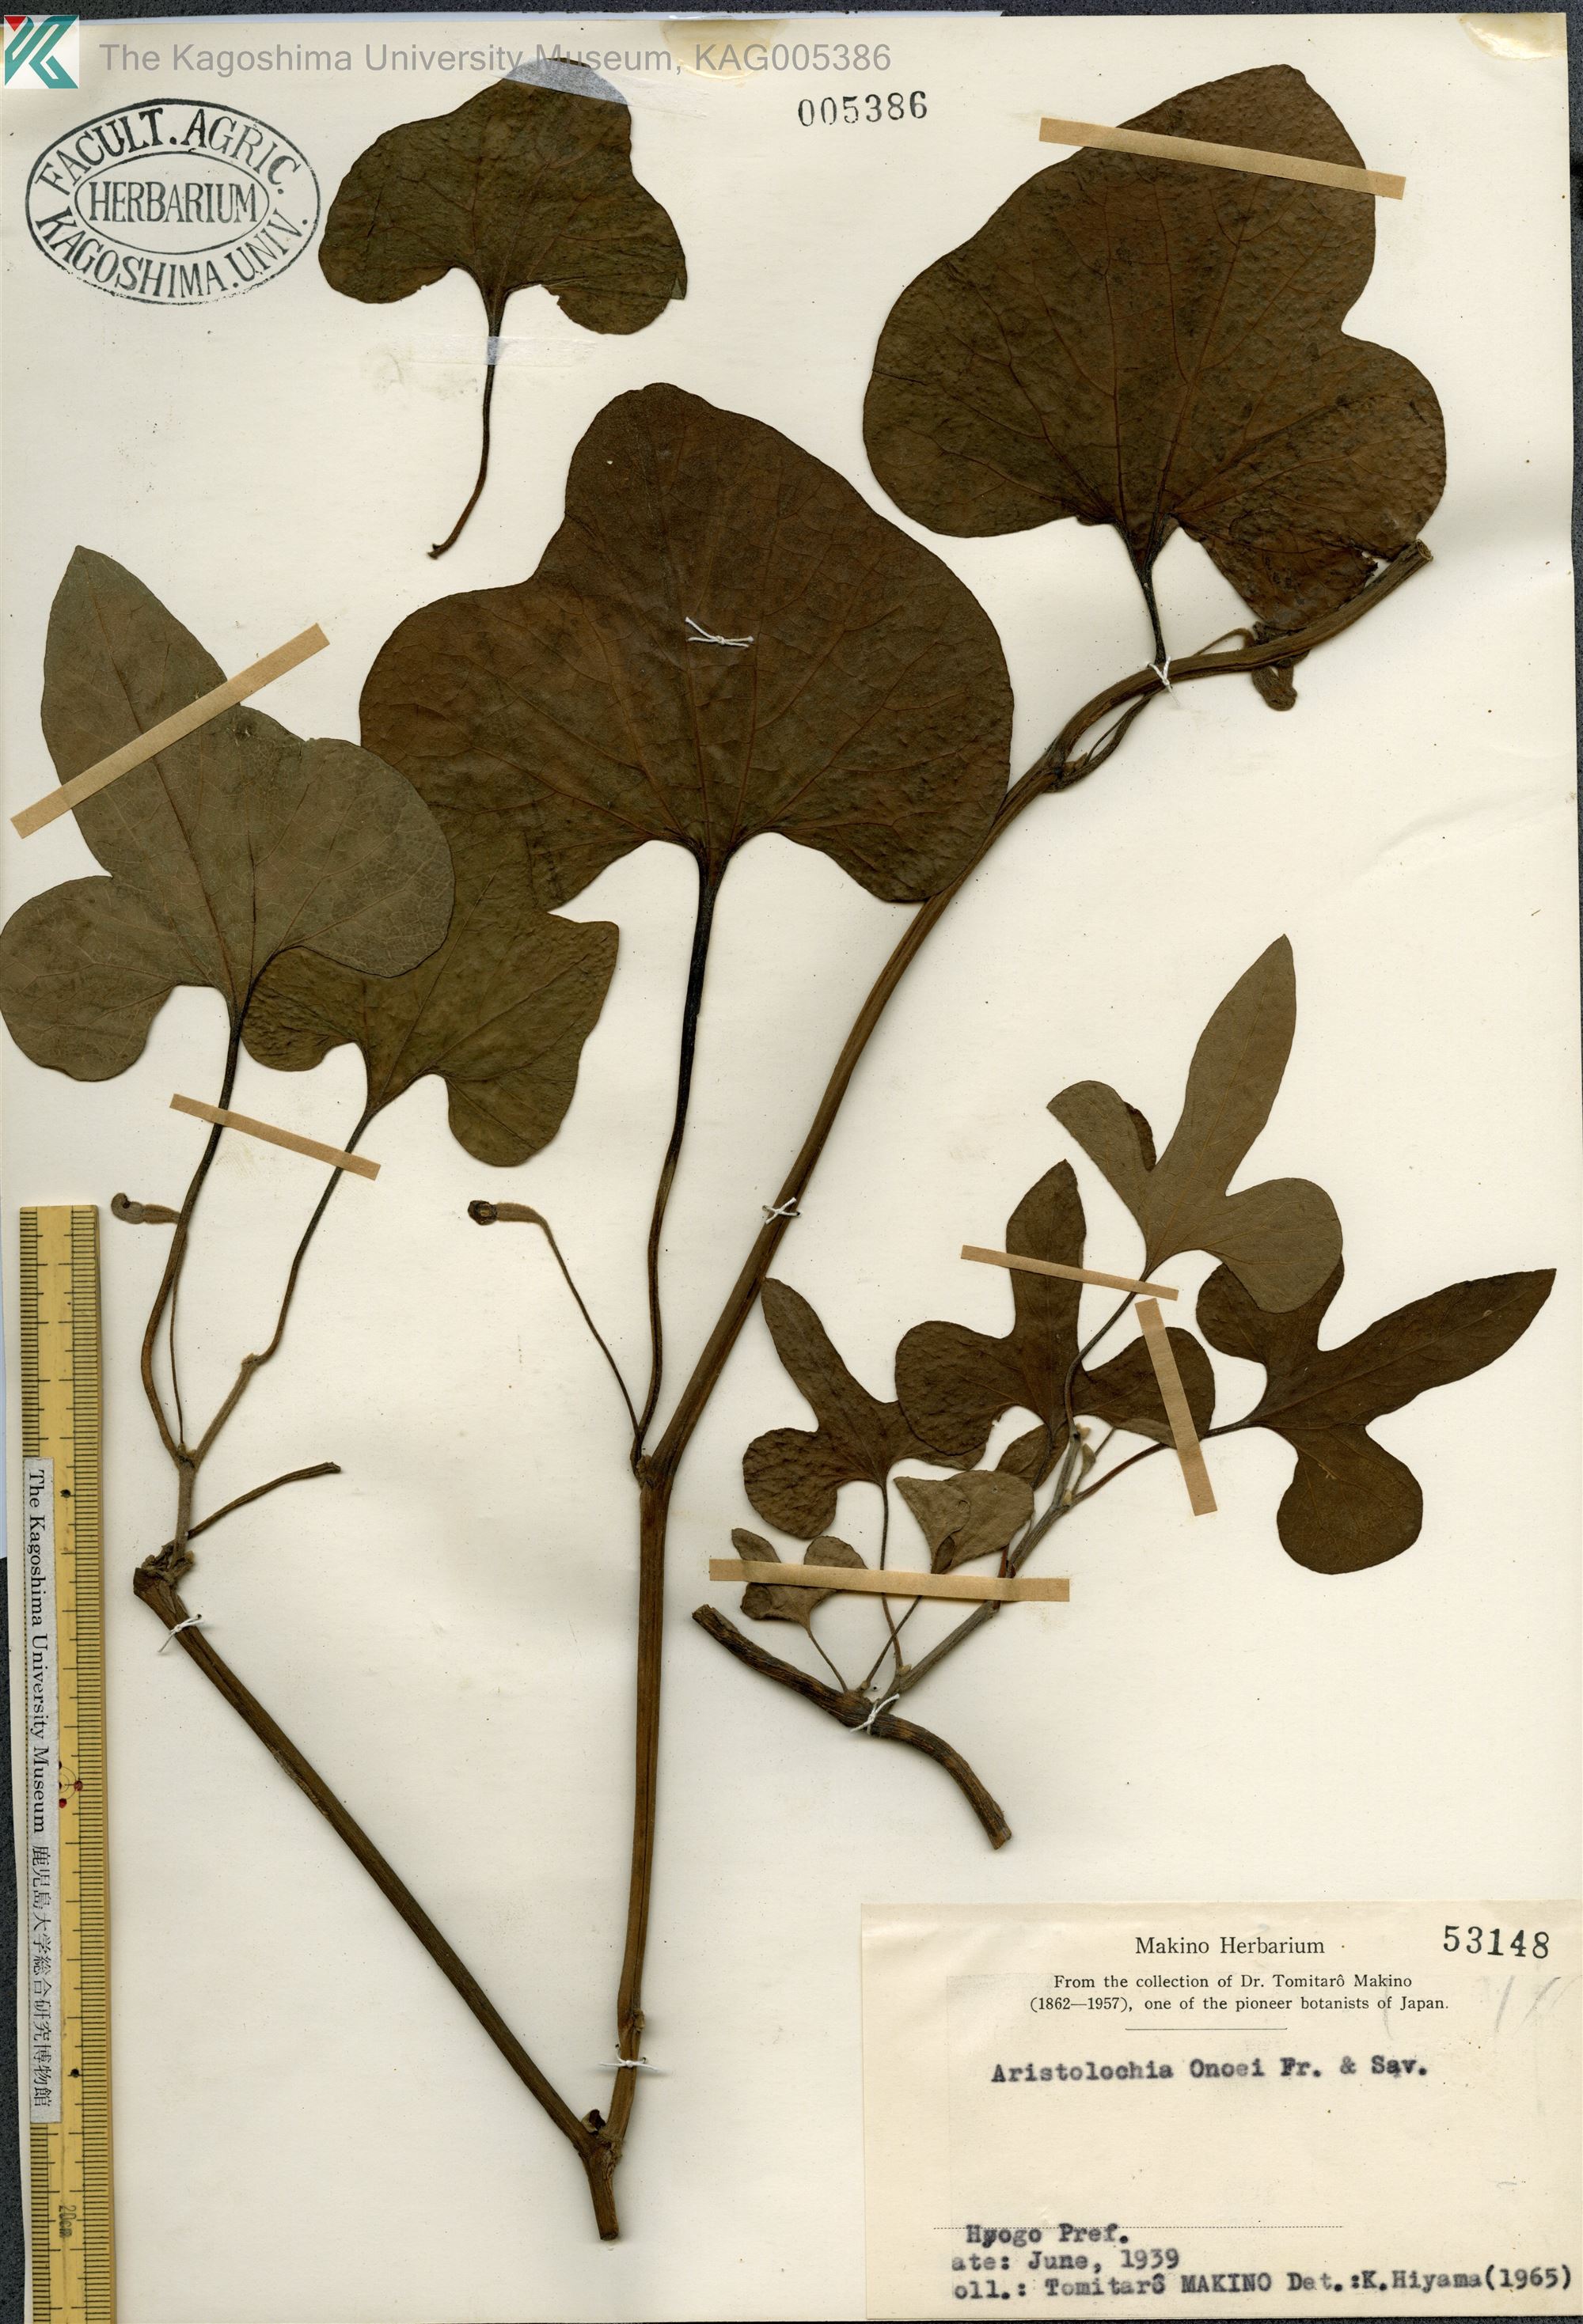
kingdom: Plantae
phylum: Tracheophyta
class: Magnoliopsida
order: Piperales
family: Aristolochiaceae
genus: Isotrema
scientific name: Isotrema shimadae
